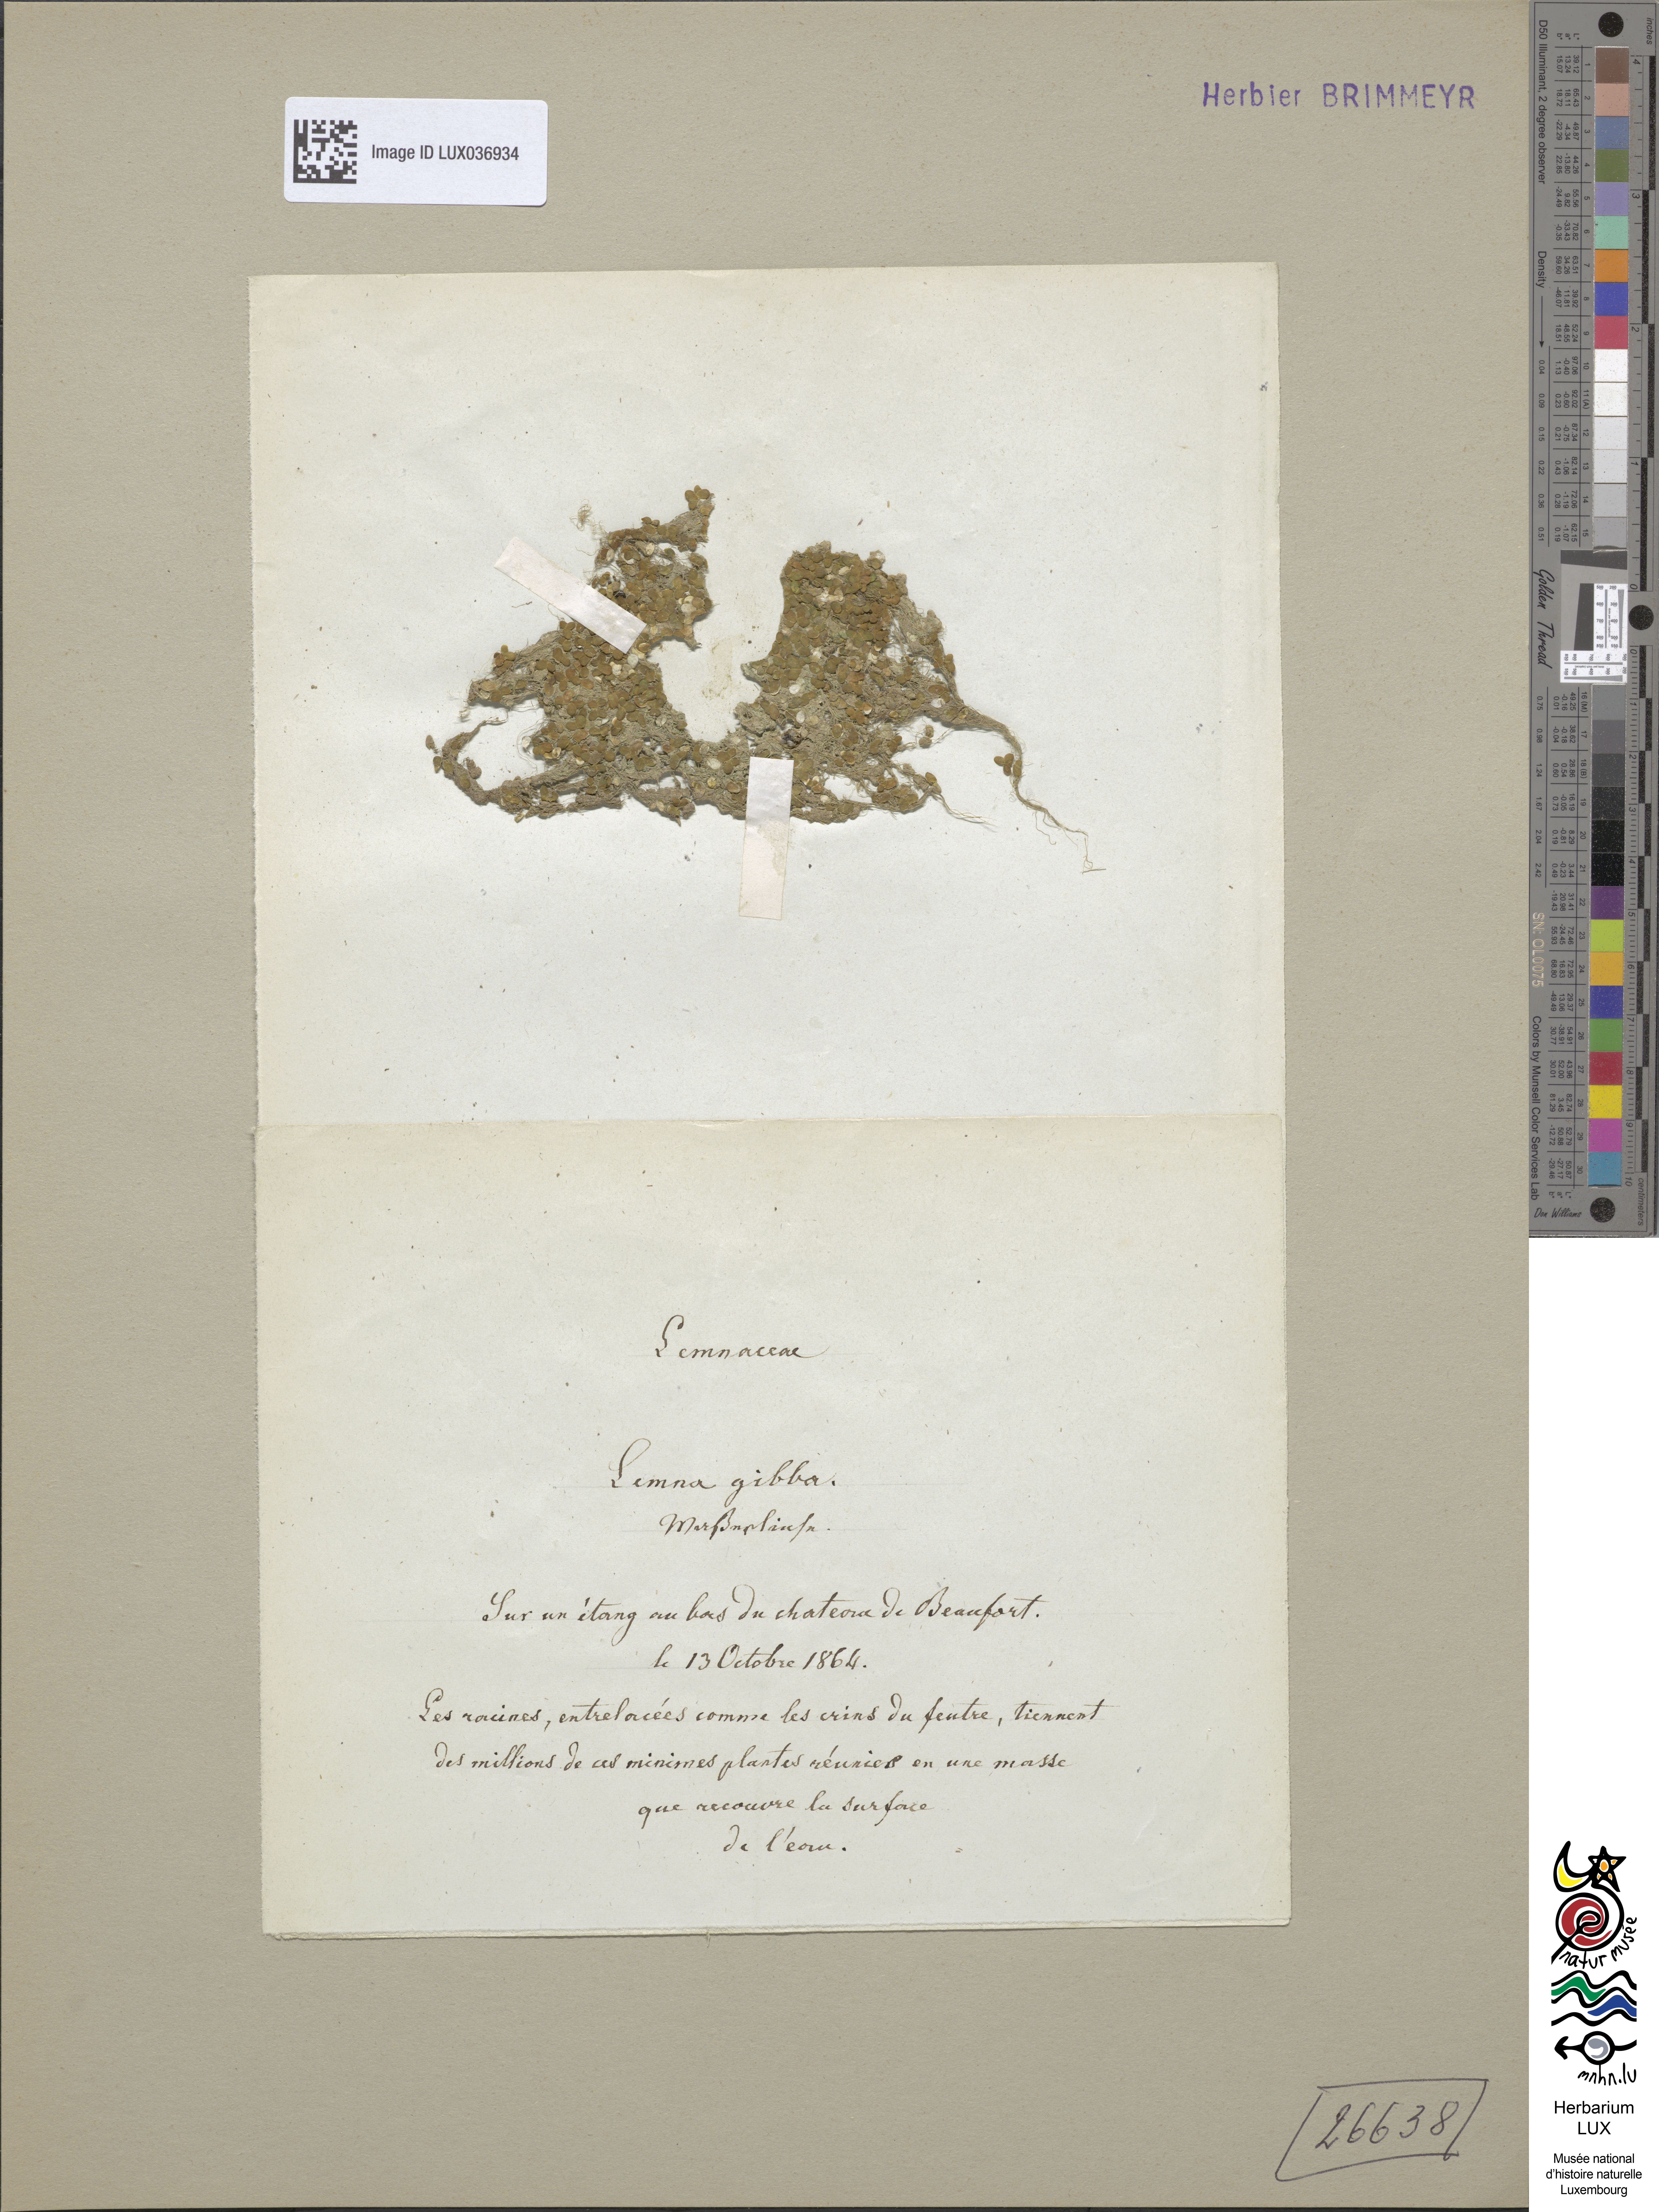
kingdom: Plantae
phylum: Tracheophyta
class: Liliopsida
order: Alismatales
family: Araceae
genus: Lemna
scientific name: Lemna gibba
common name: Fat duckweed
